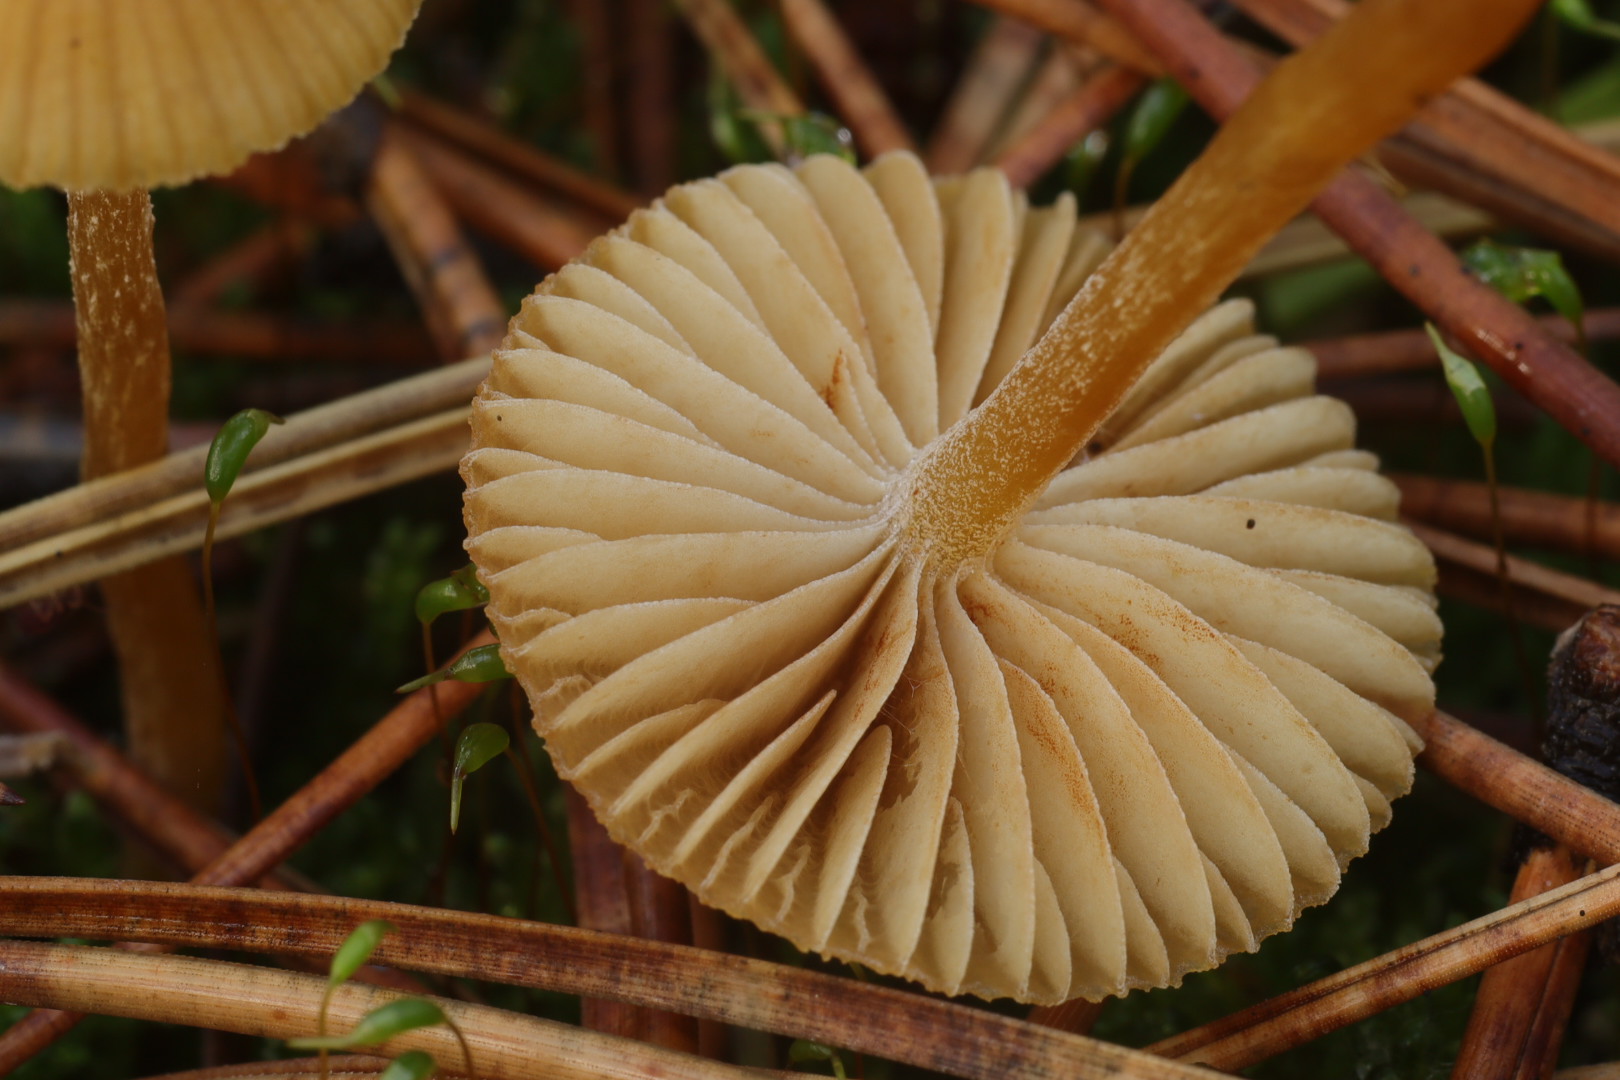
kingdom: Fungi
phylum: Basidiomycota
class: Agaricomycetes
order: Agaricales
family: Hymenogastraceae
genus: Galerina
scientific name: Galerina
